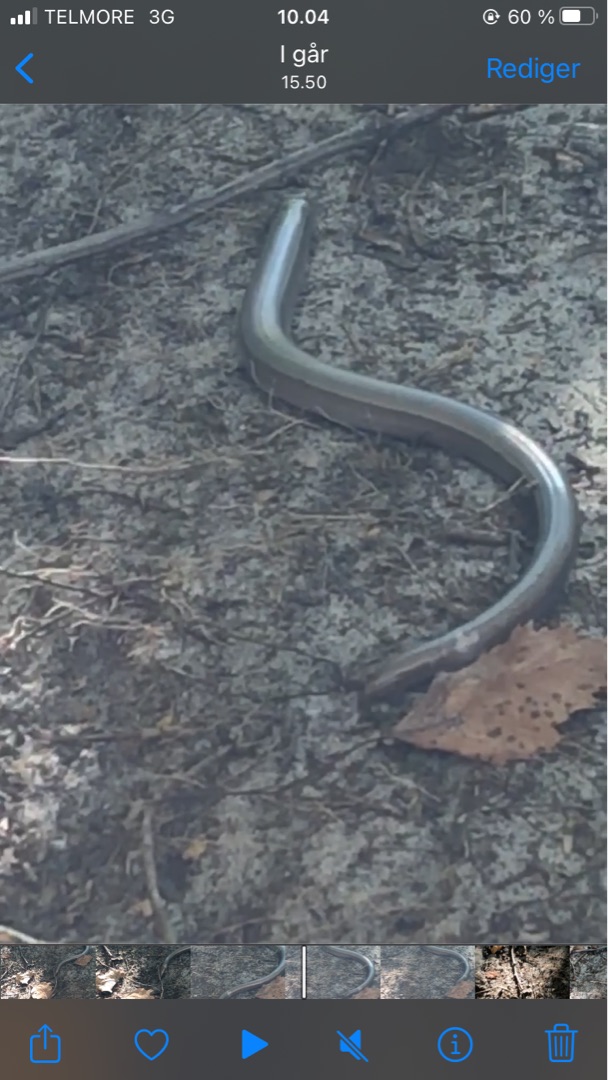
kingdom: Animalia
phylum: Chordata
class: Squamata
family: Anguidae
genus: Anguis
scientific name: Anguis fragilis
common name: Stålorm
